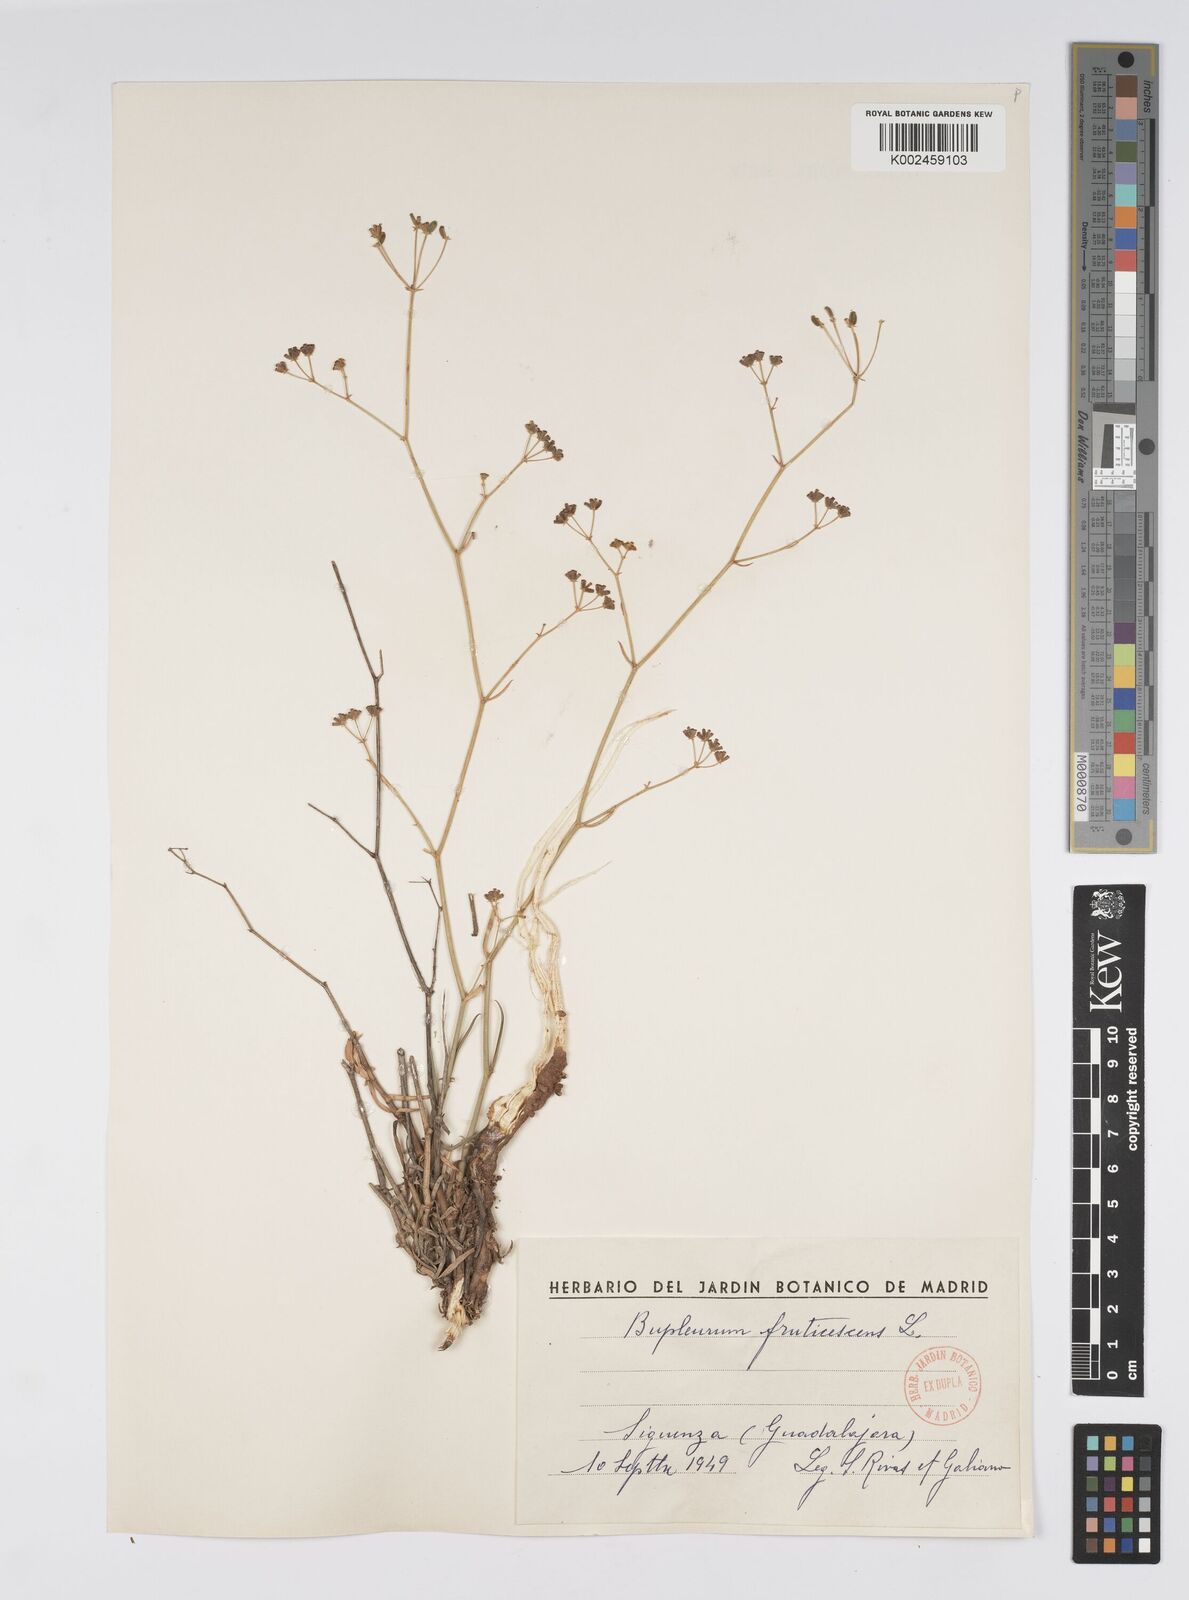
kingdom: Plantae
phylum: Tracheophyta
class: Magnoliopsida
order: Apiales
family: Apiaceae
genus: Bupleurum
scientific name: Bupleurum fruticescens
